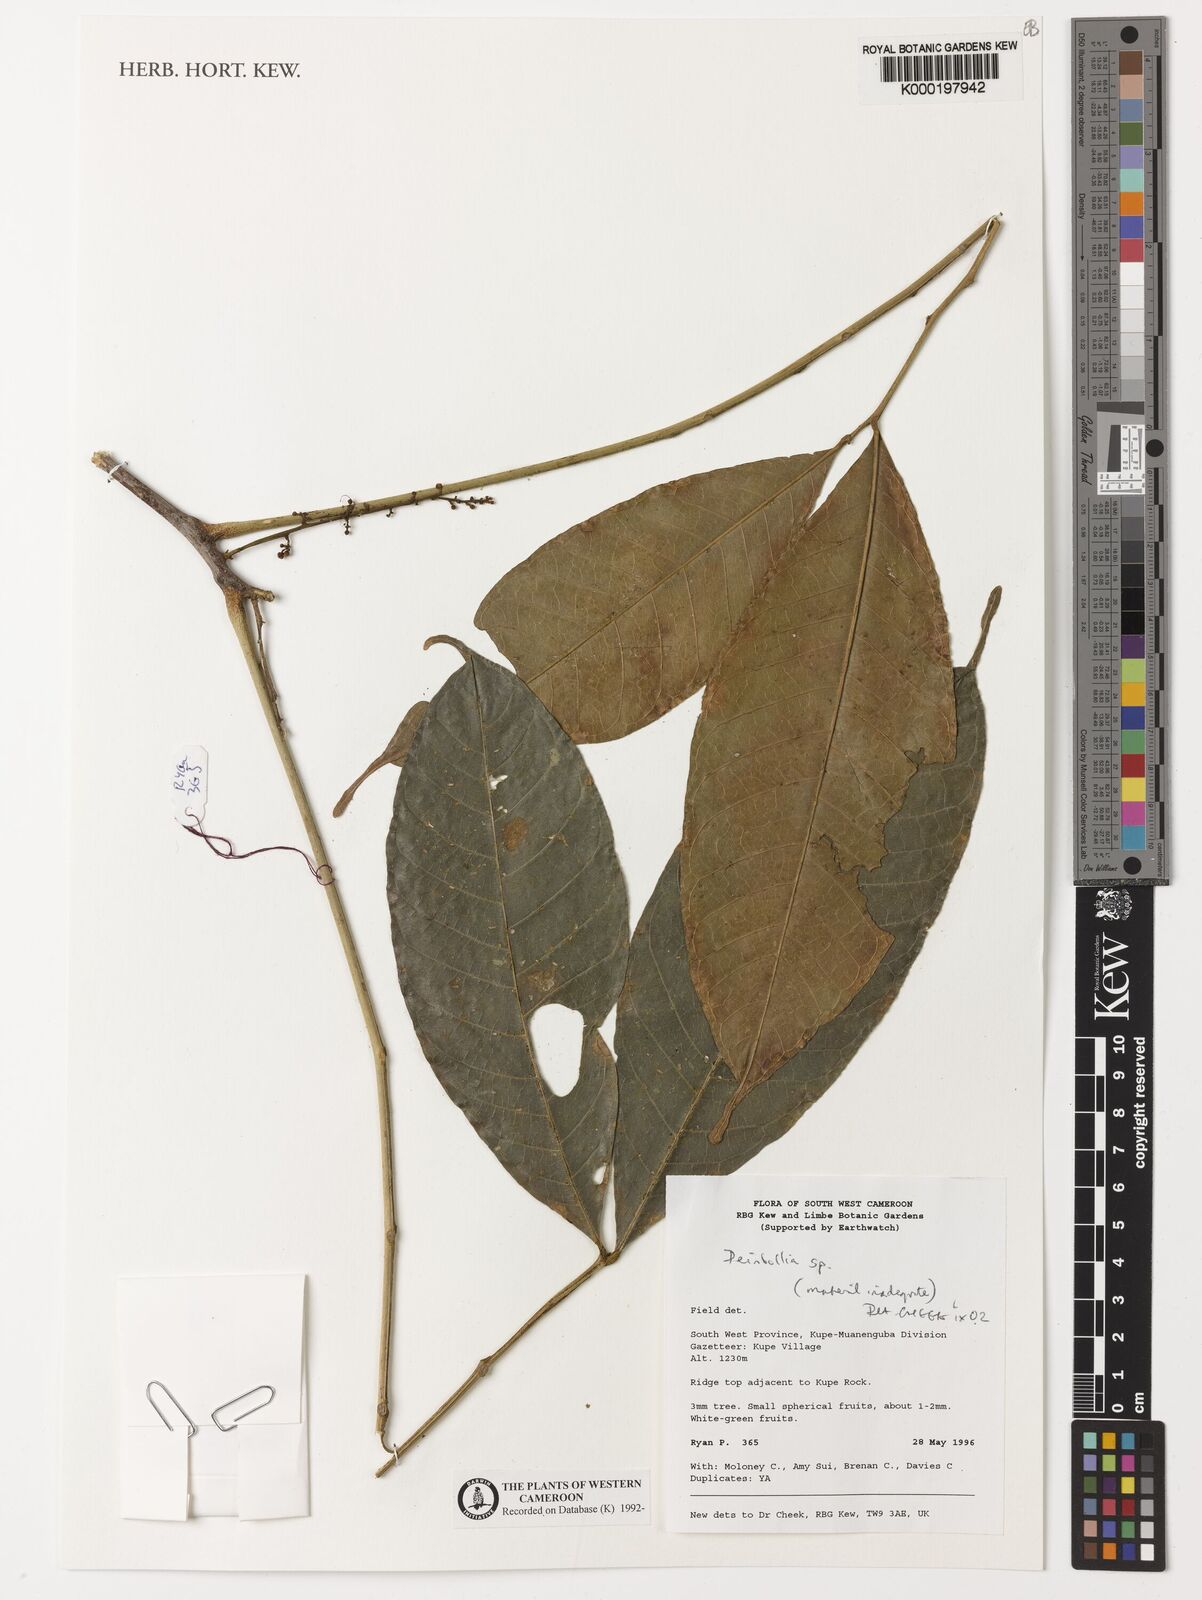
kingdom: Plantae
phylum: Tracheophyta
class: Magnoliopsida
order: Sapindales
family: Sapindaceae
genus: Deinbollia
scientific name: Deinbollia
